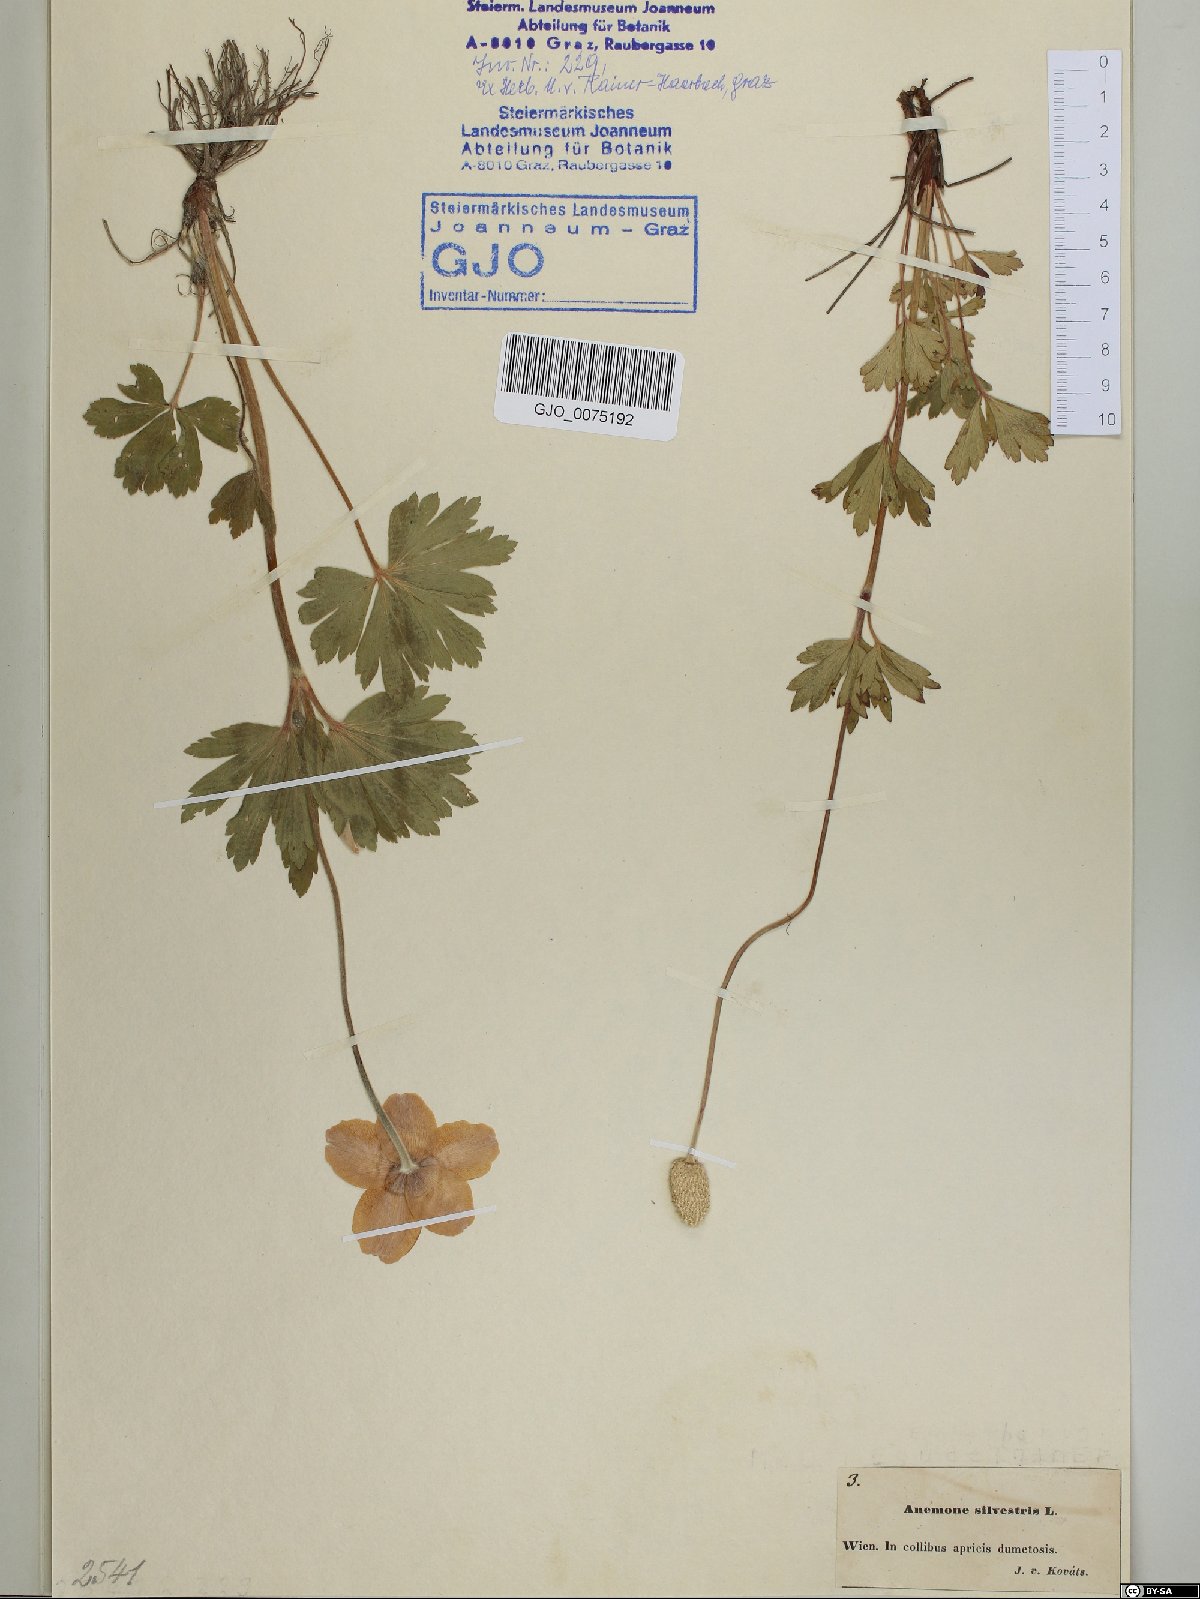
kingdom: Plantae
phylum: Tracheophyta
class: Magnoliopsida
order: Ranunculales
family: Ranunculaceae
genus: Anemone
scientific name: Anemone sylvestris
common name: Snowdrop anemone
